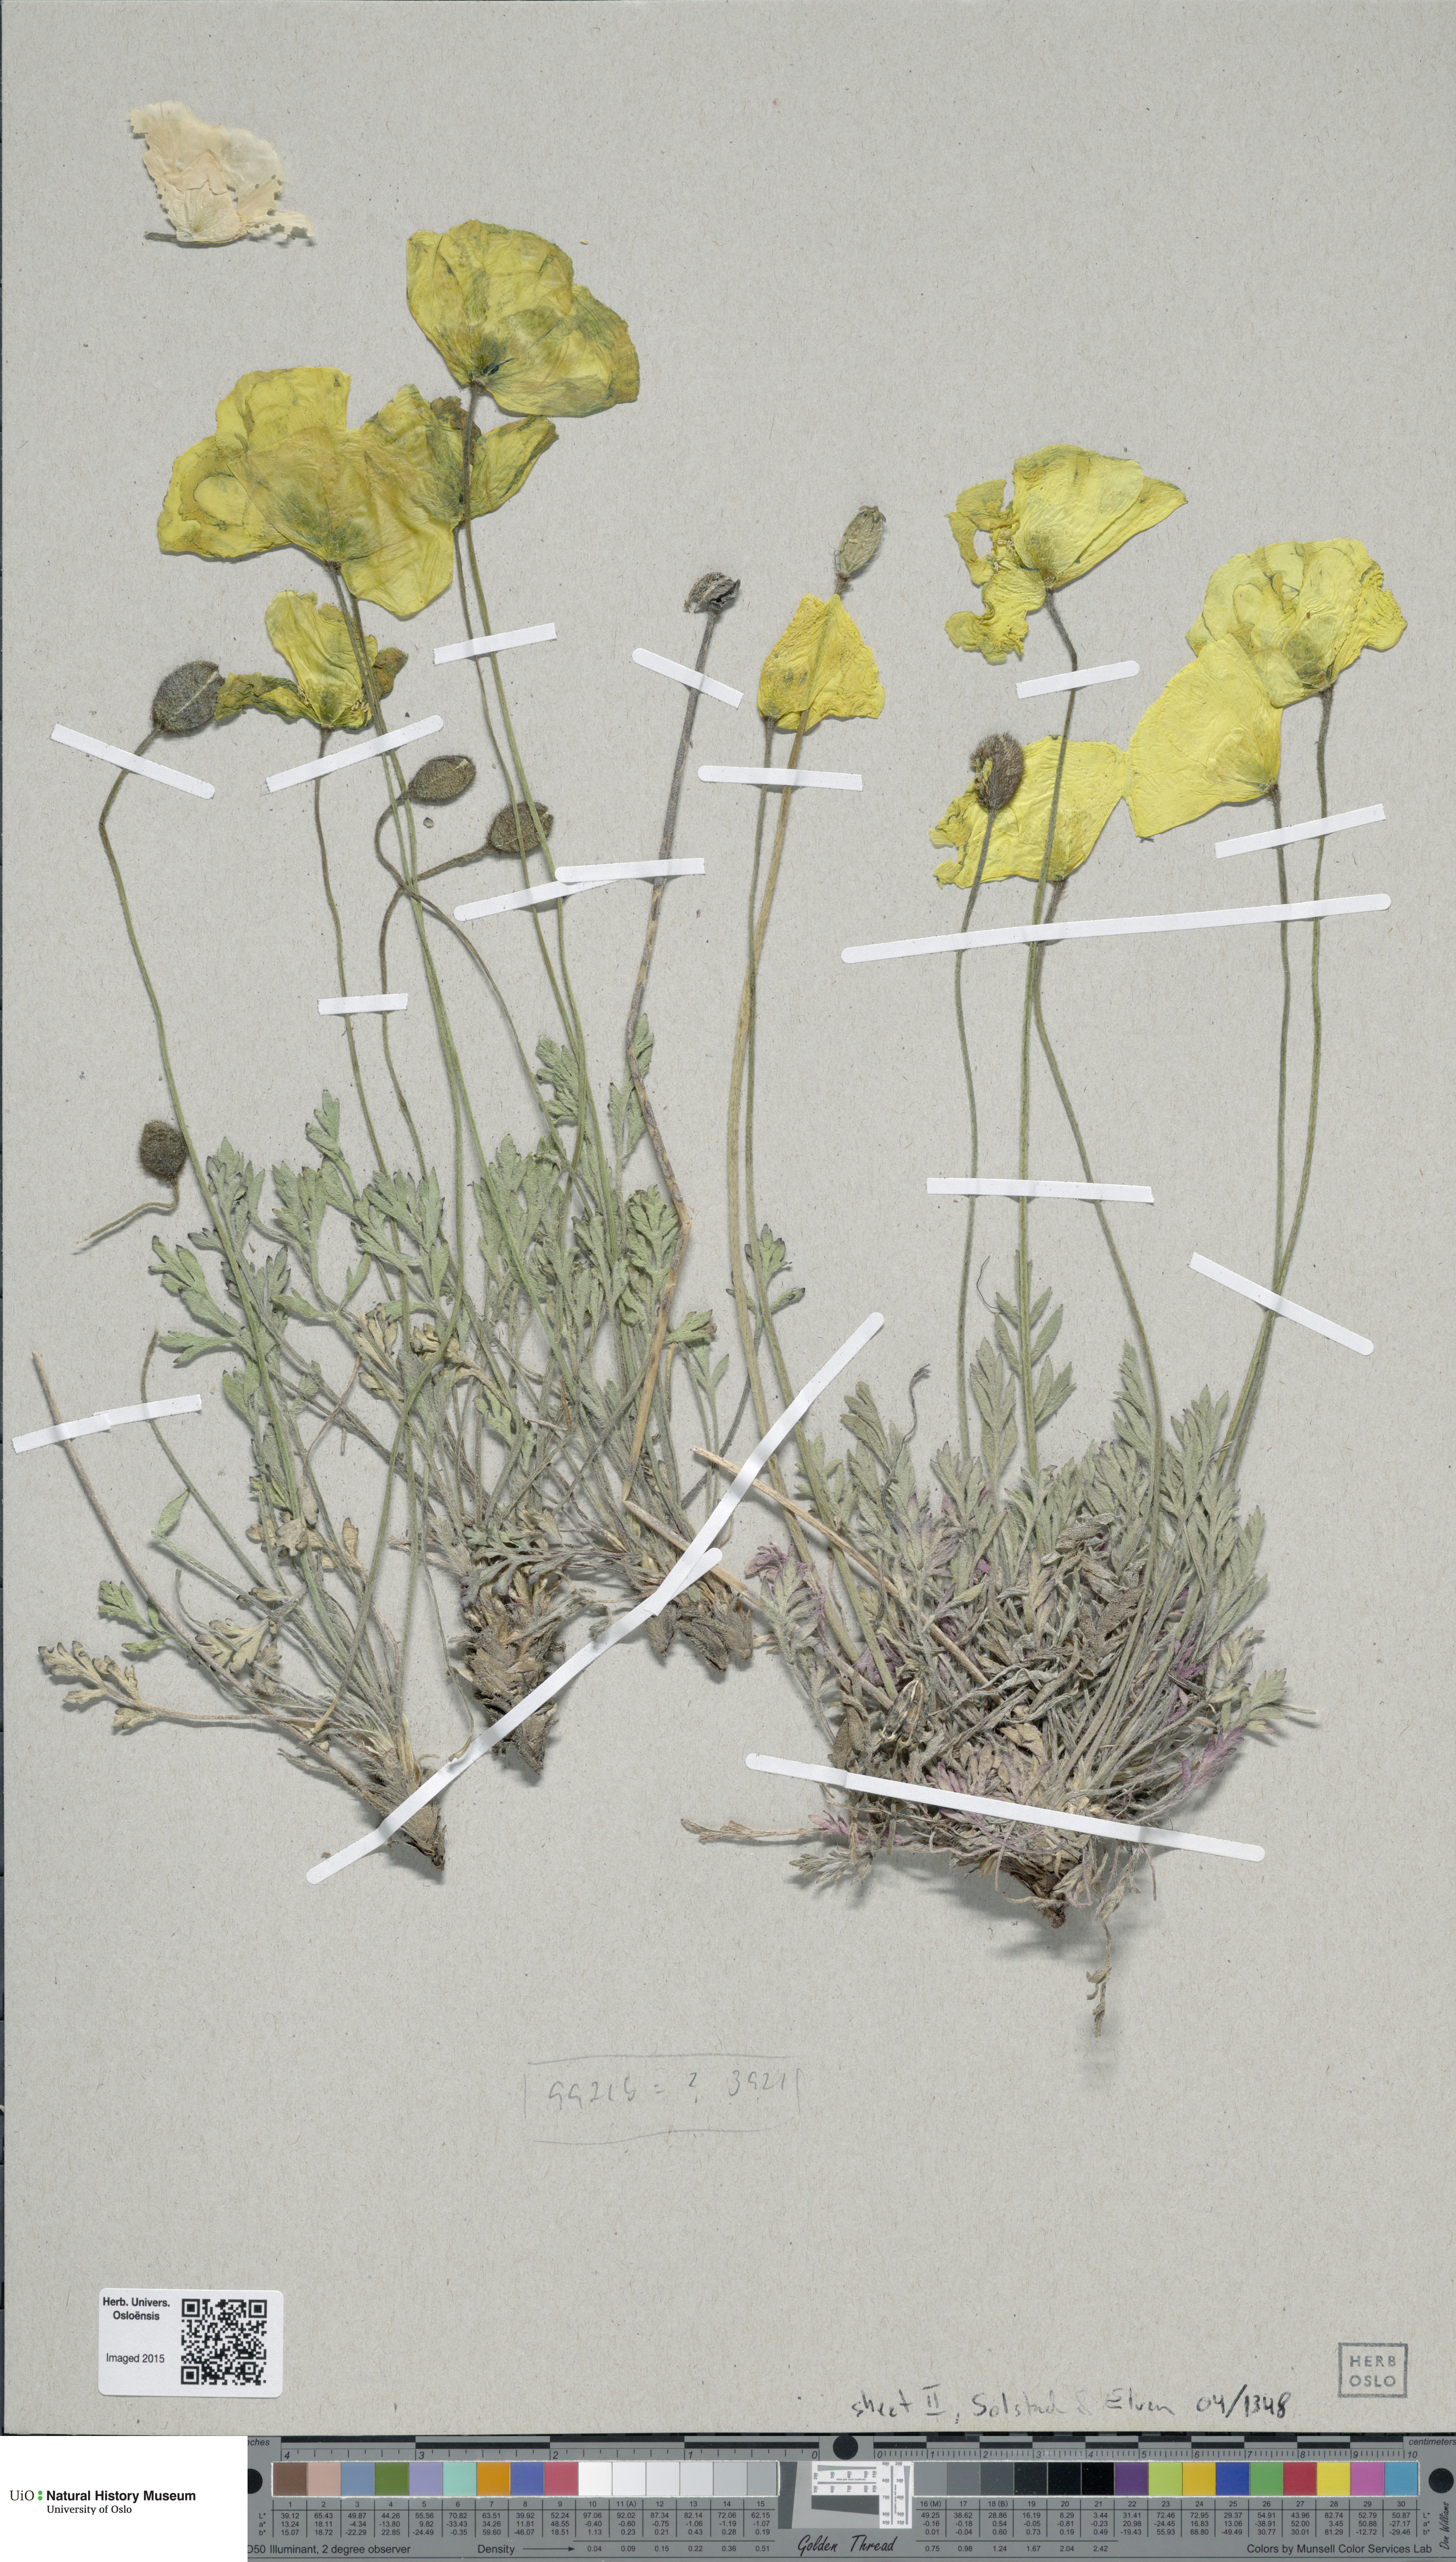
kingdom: Plantae
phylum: Tracheophyta
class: Magnoliopsida
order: Ranunculales
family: Papaveraceae
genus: Papaver
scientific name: Papaver lenaense
